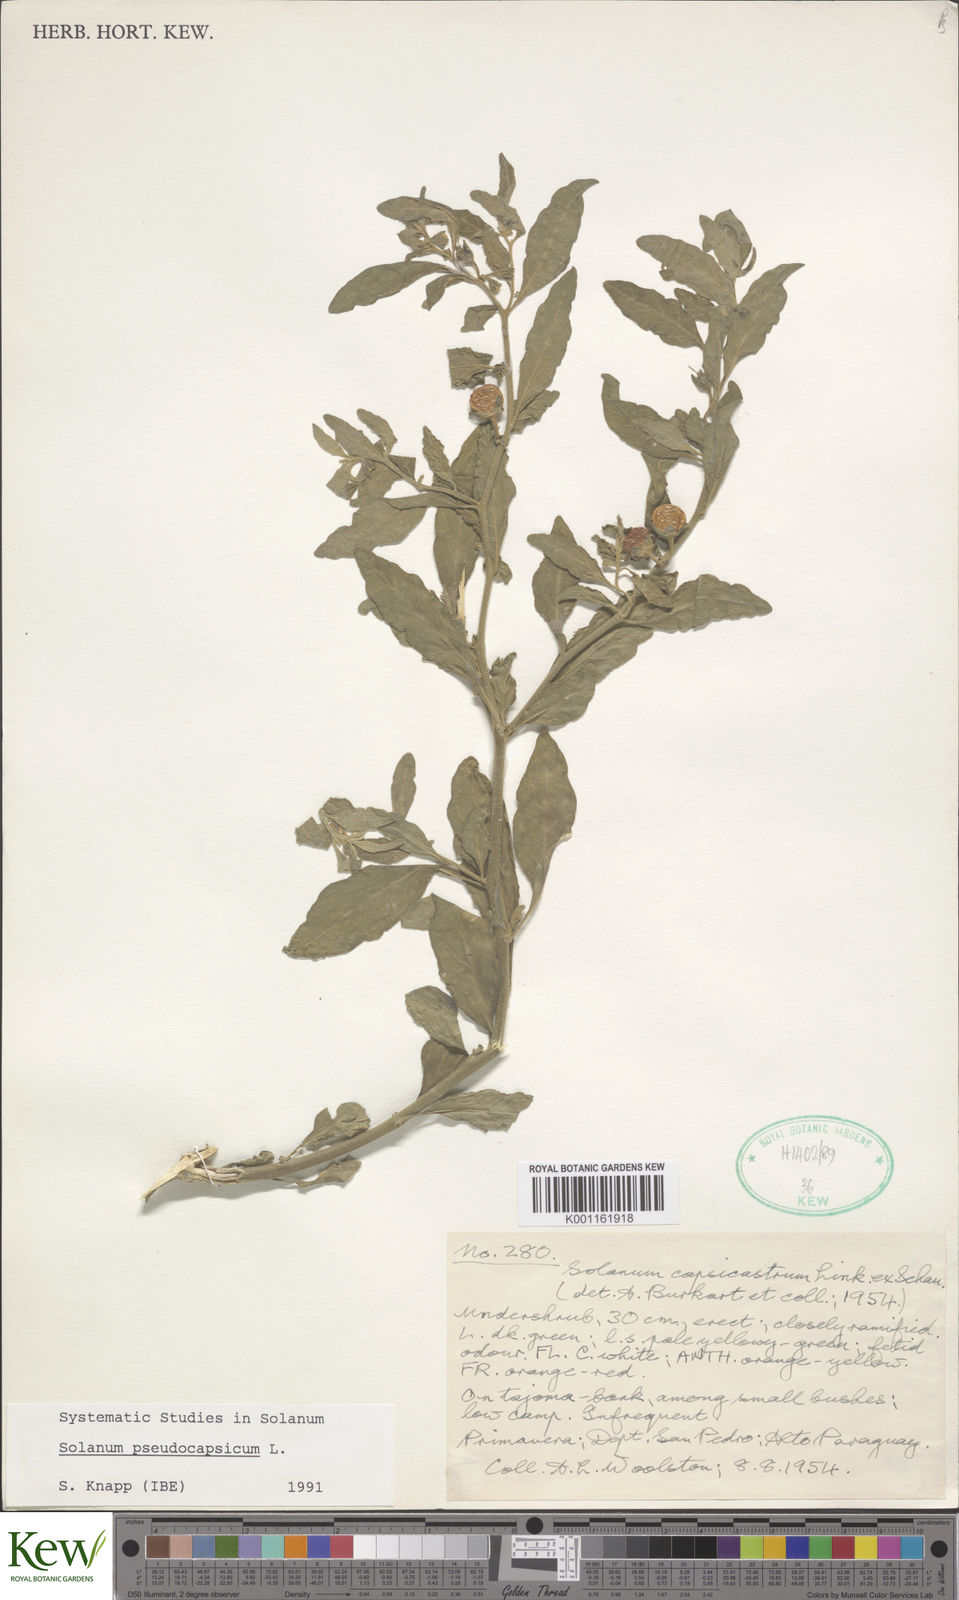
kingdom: Plantae
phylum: Tracheophyta
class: Magnoliopsida
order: Solanales
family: Solanaceae
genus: Solanum
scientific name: Solanum pseudocapsicum
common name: Jerusalem cherry
